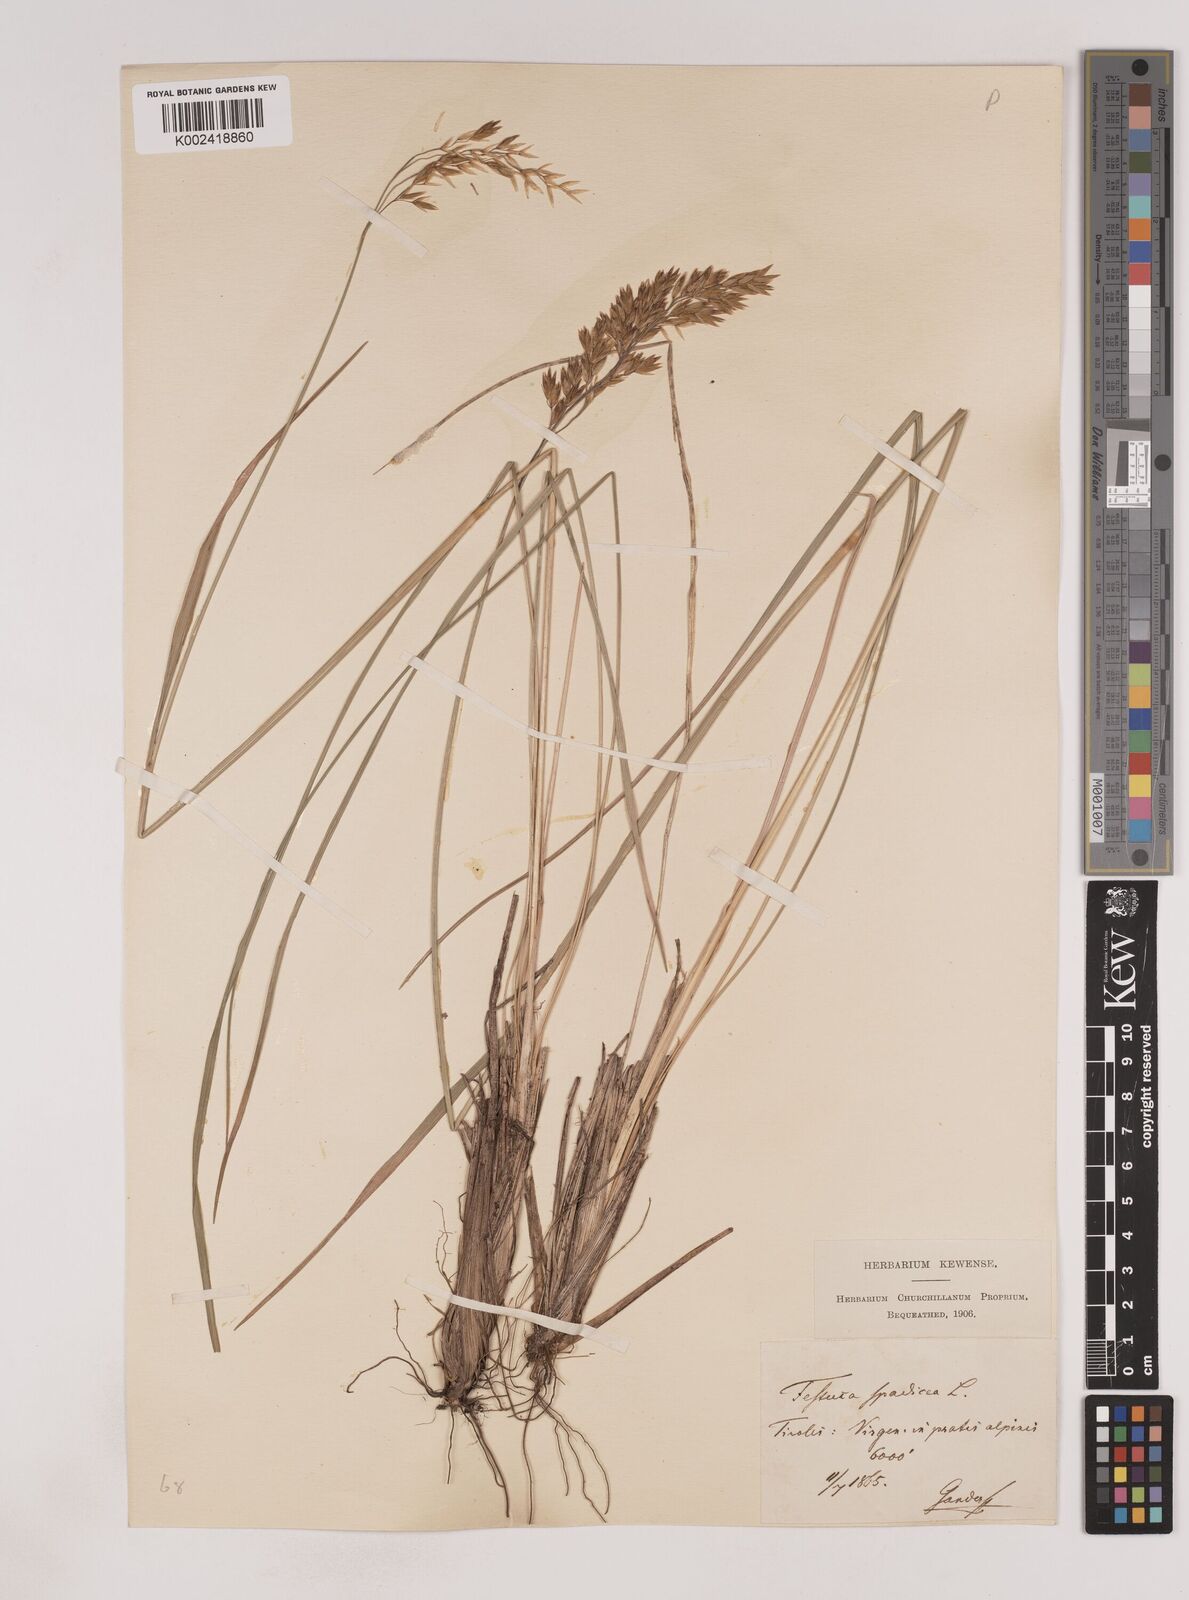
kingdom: Plantae
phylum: Tracheophyta
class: Liliopsida
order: Poales
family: Poaceae
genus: Patzkea
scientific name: Patzkea paniculata
